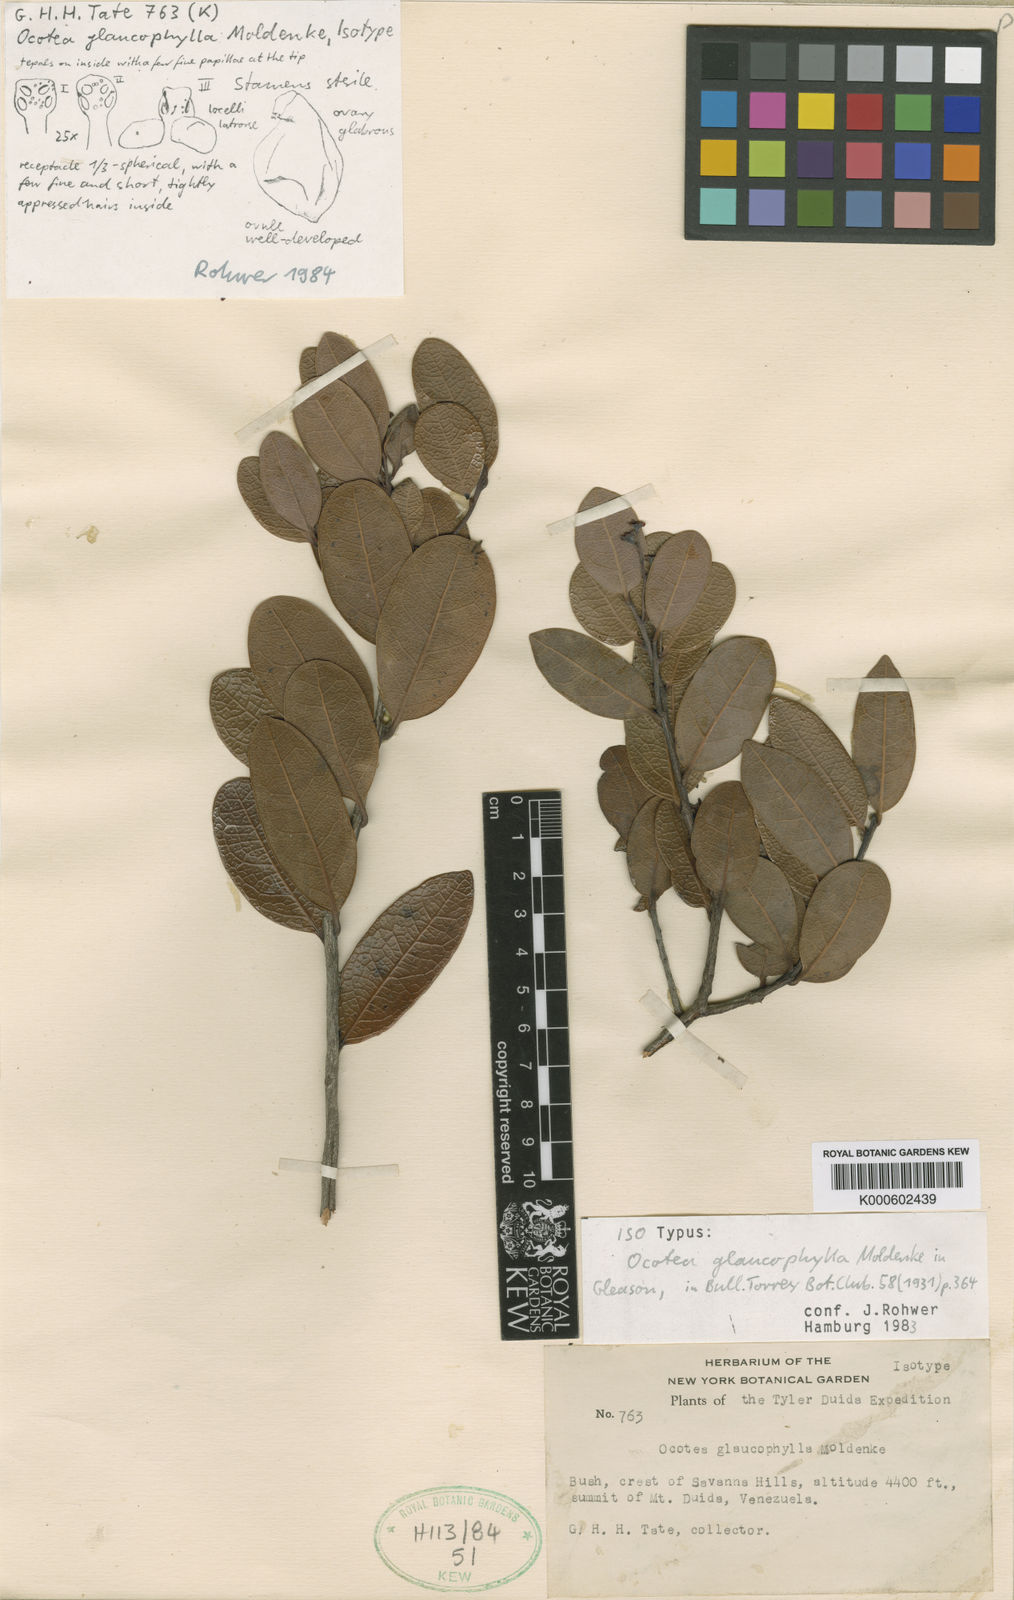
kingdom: Plantae
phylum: Tracheophyta
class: Magnoliopsida
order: Laurales
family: Lauraceae
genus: Ocotea
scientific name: Ocotea glaucophylla
